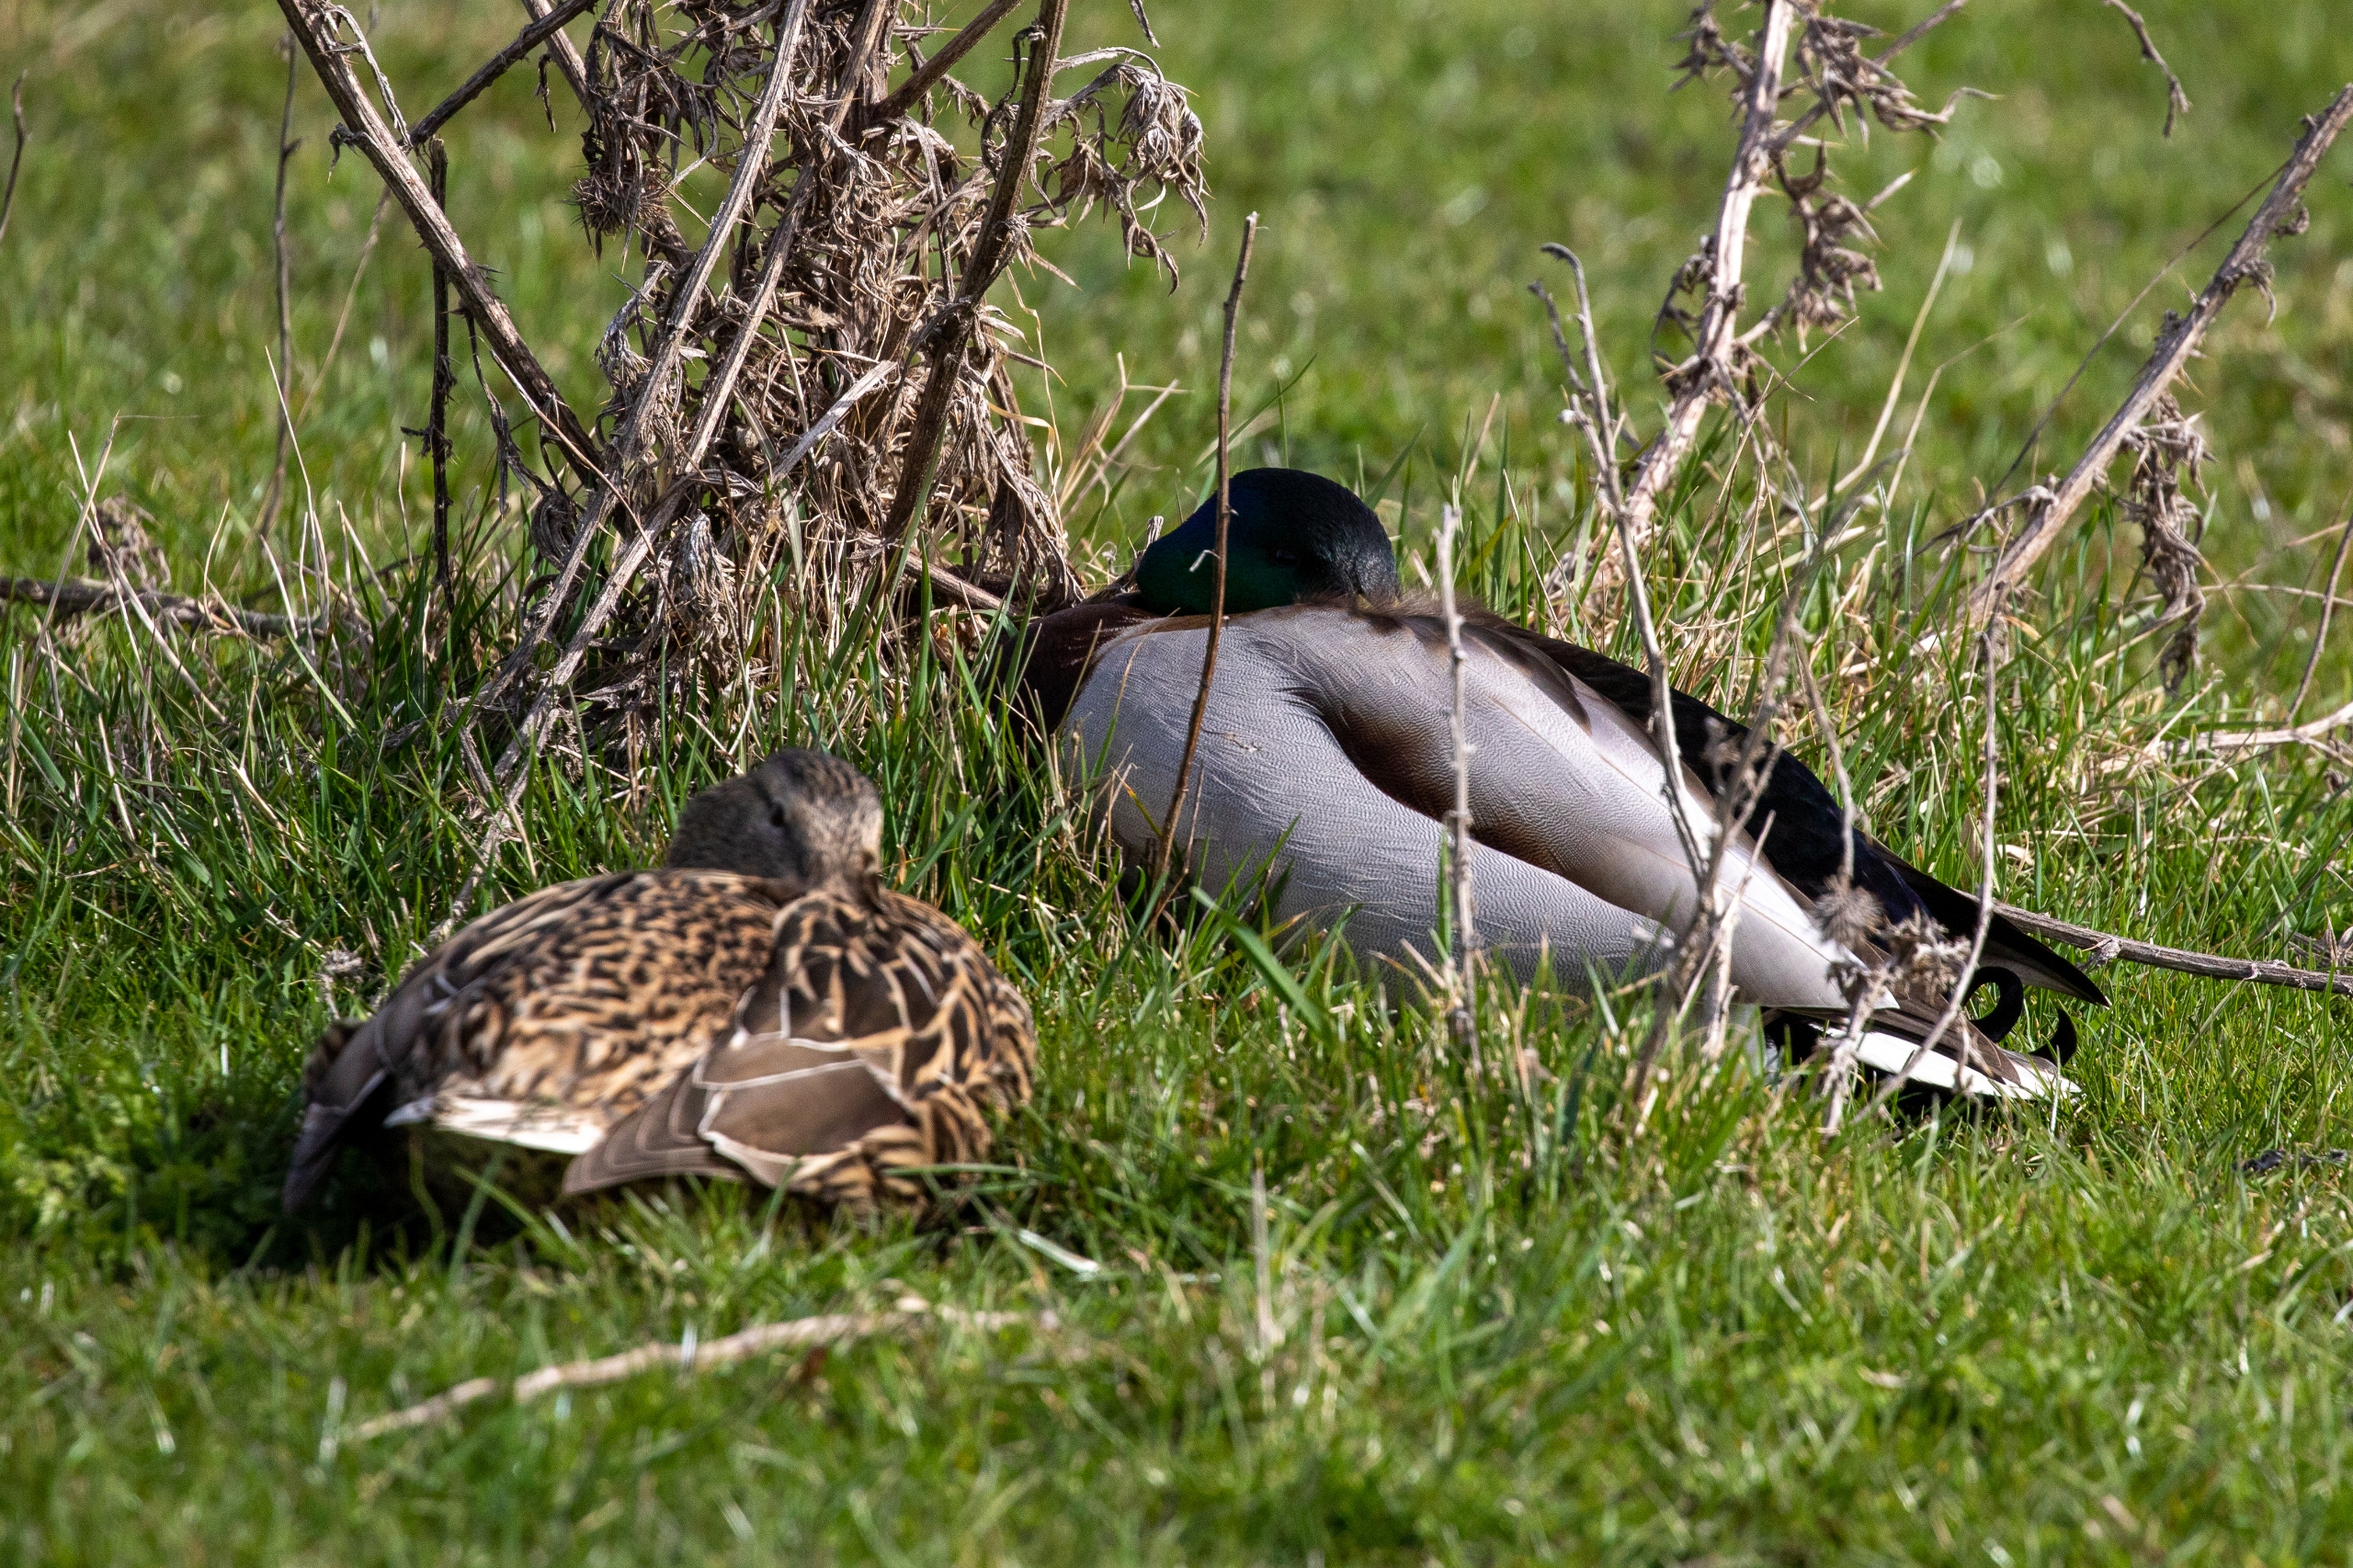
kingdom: Animalia
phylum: Chordata
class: Aves
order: Anseriformes
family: Anatidae
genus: Anas
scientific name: Anas platyrhynchos
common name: Gråand
